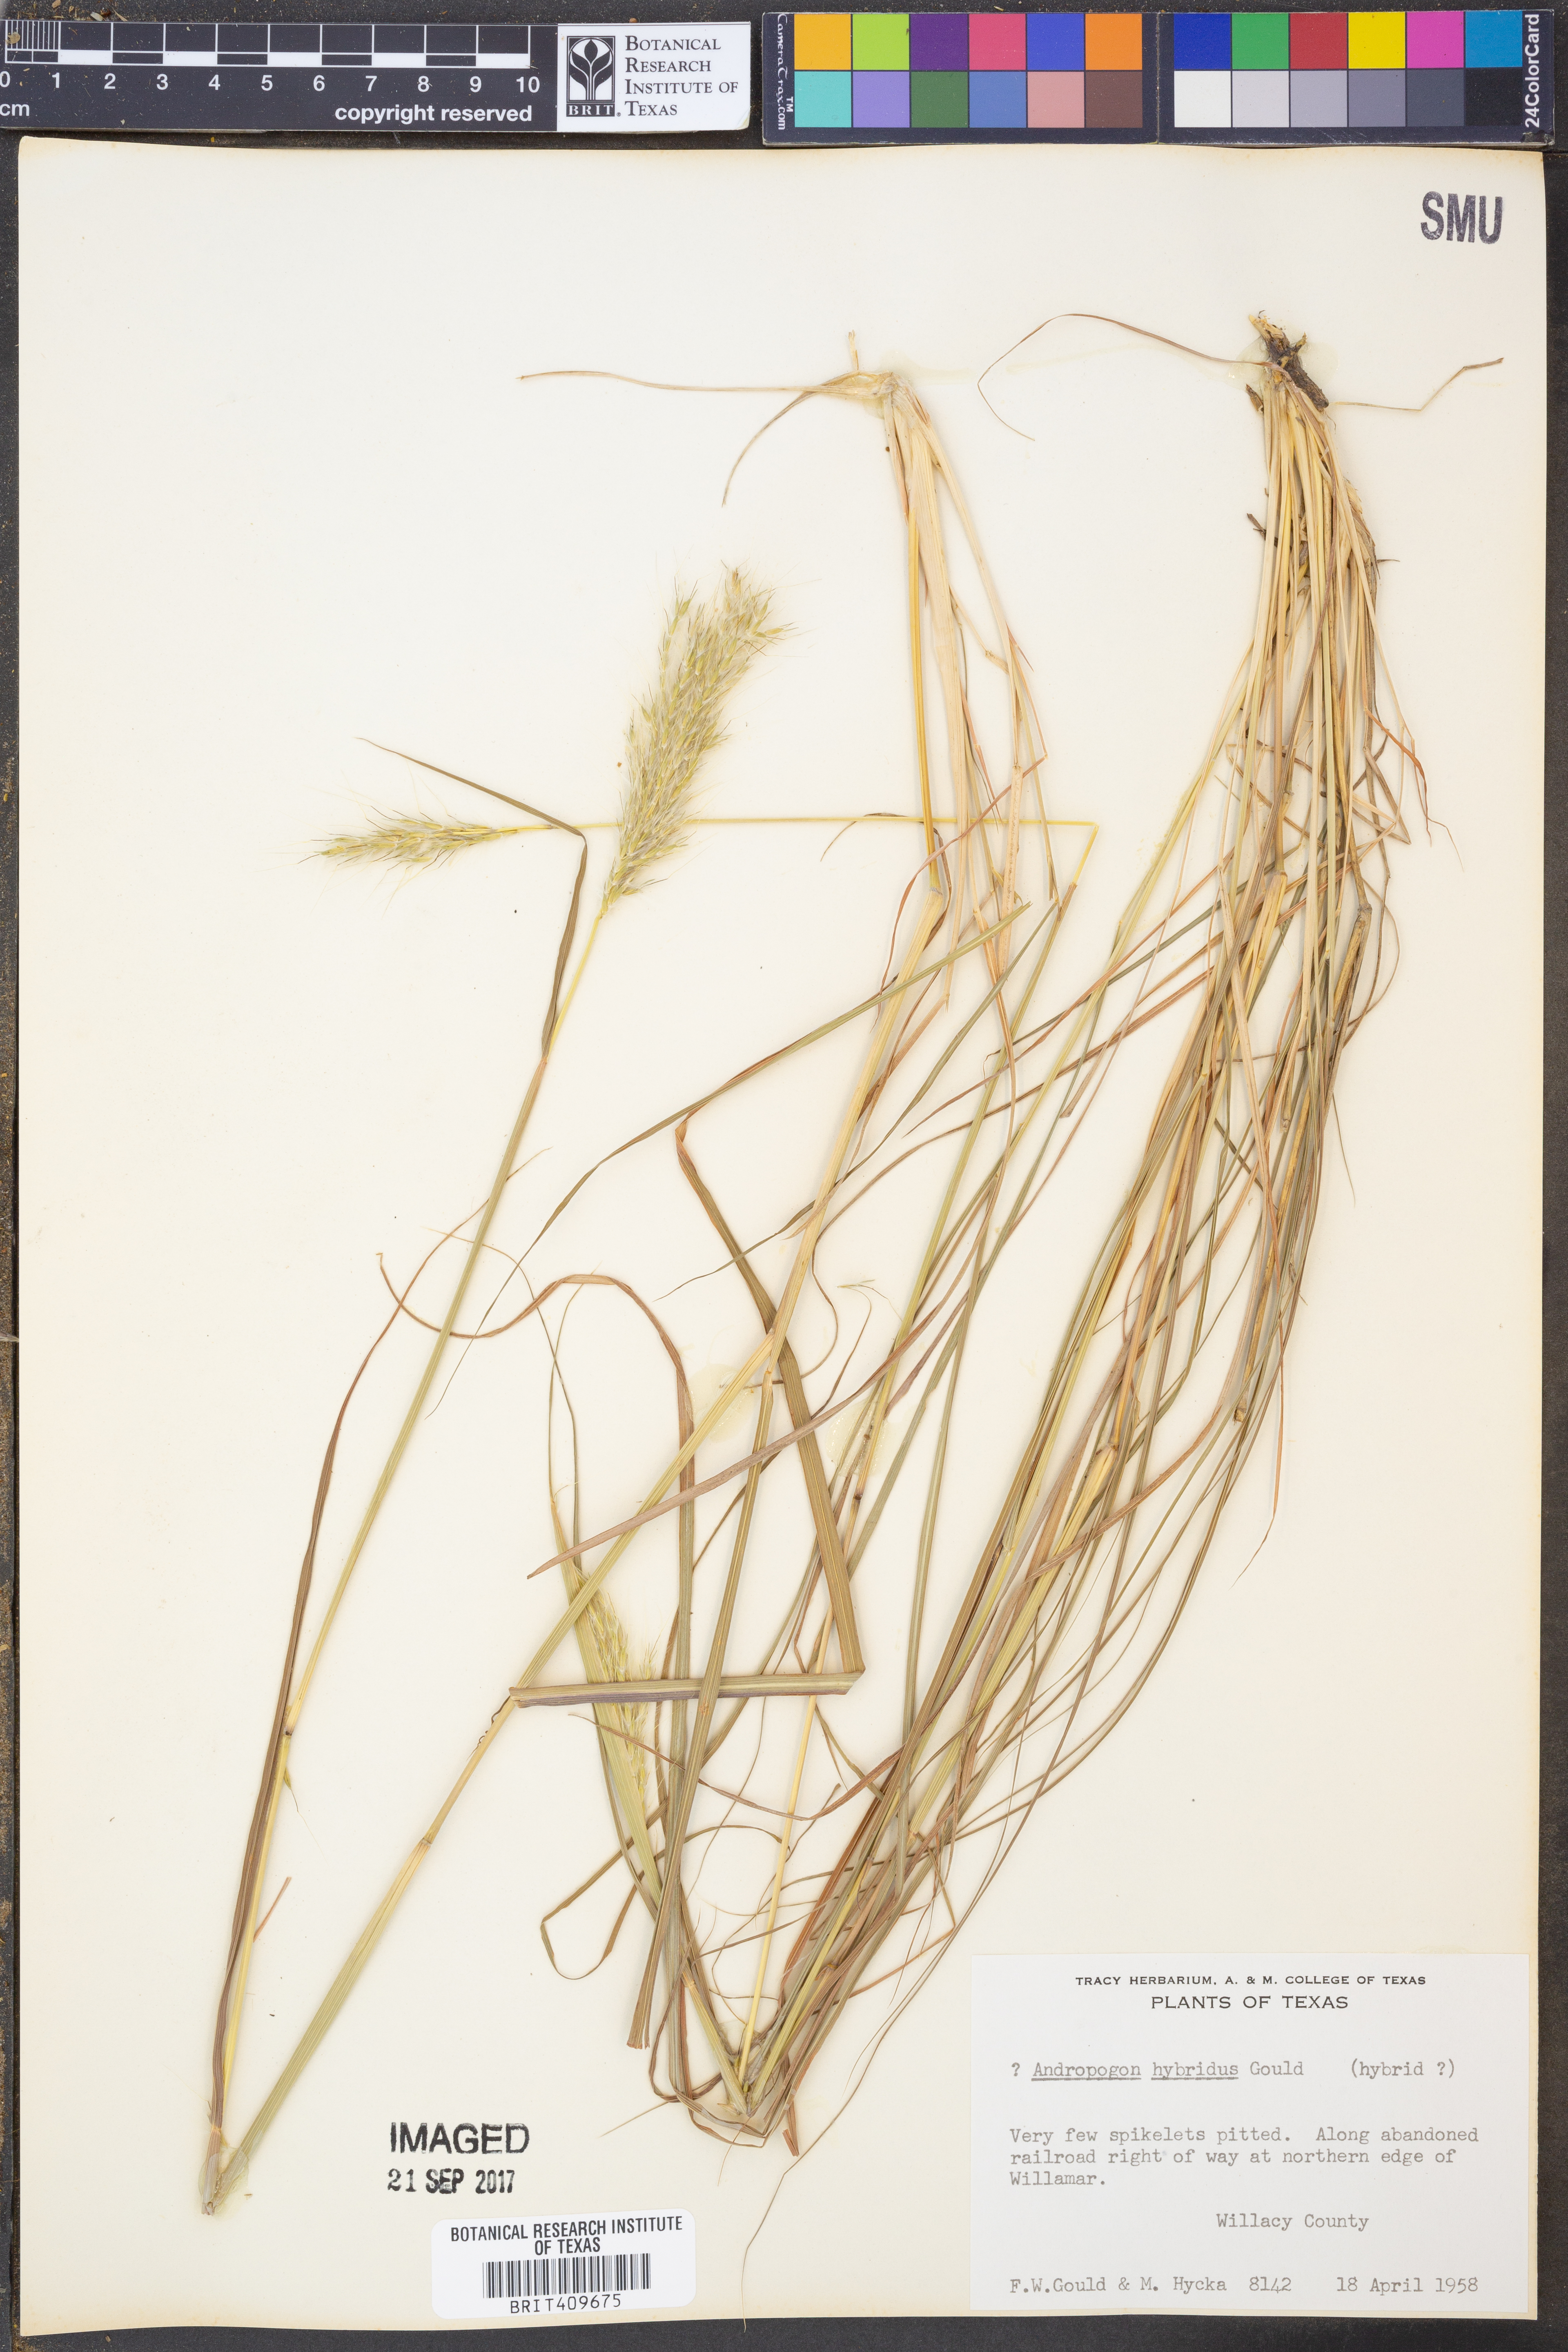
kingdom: Plantae
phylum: Tracheophyta
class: Liliopsida
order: Poales
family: Poaceae
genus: Bothriochloa
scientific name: Bothriochloa hybrida
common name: Hybrid bluestem
